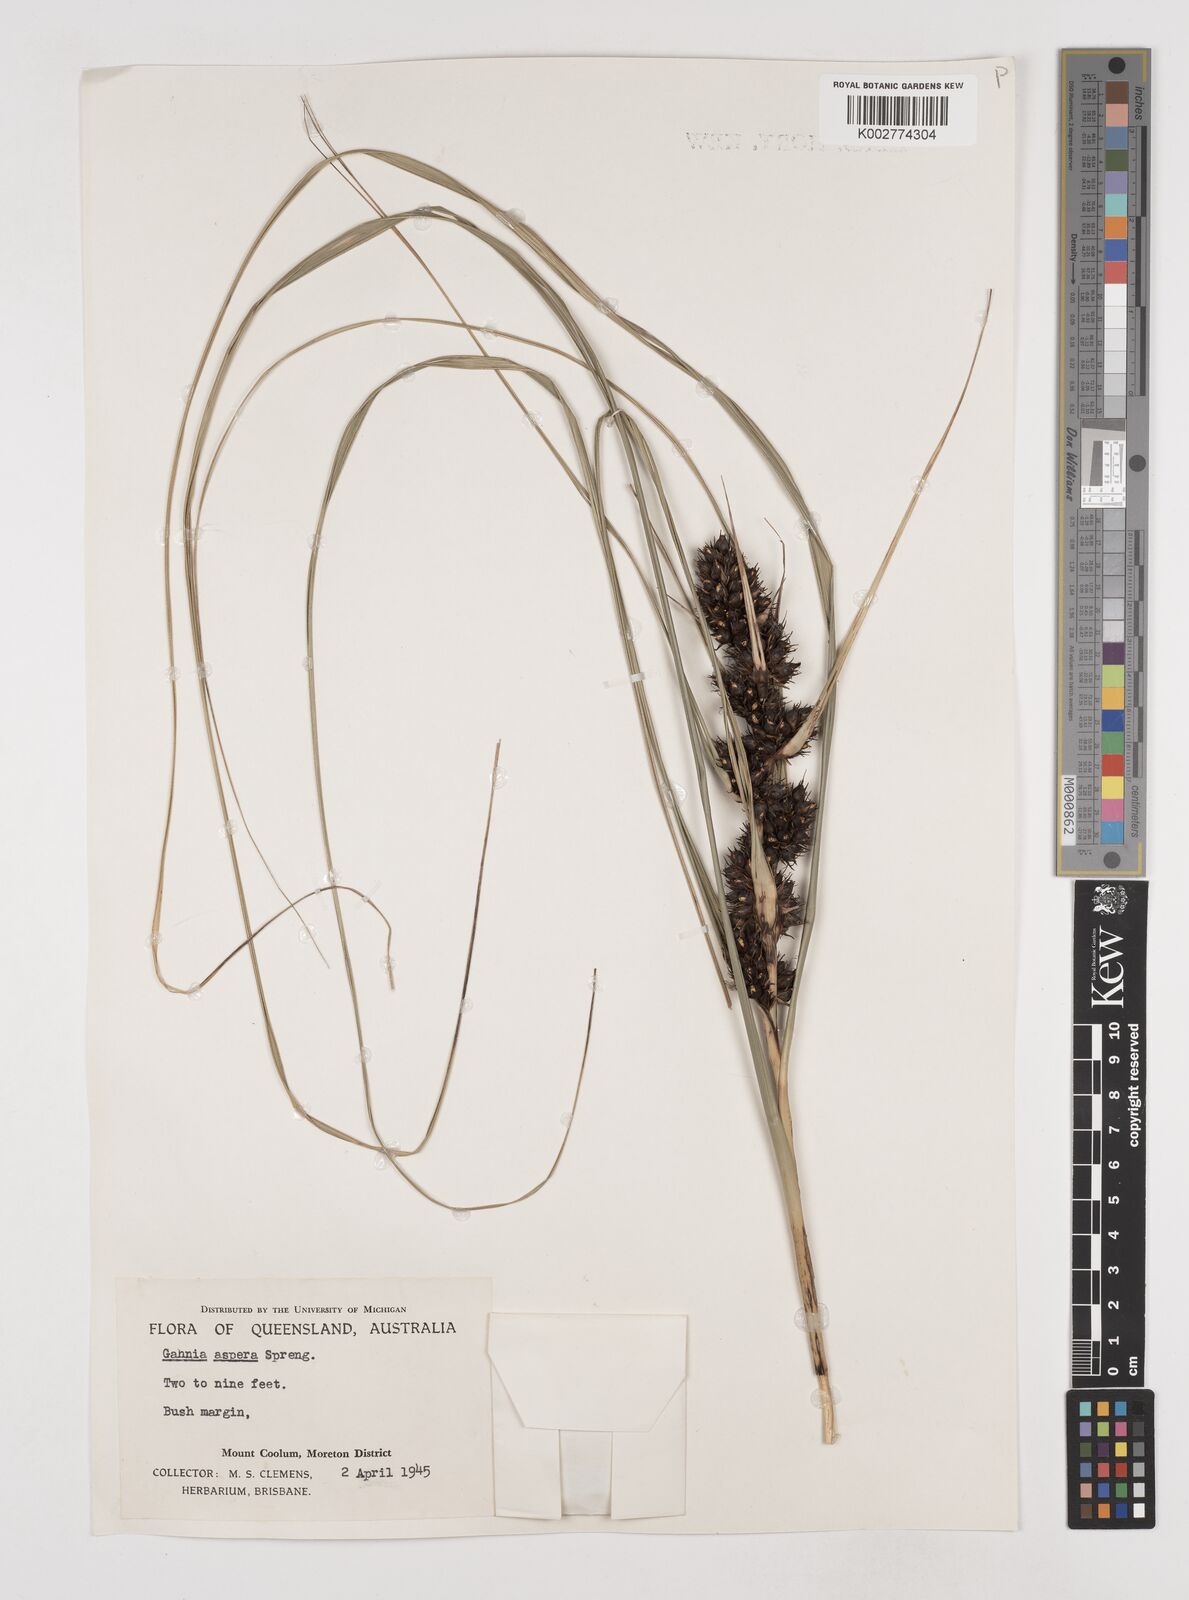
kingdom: Plantae
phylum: Tracheophyta
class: Liliopsida
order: Poales
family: Cyperaceae
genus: Gahnia
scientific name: Gahnia aspera
